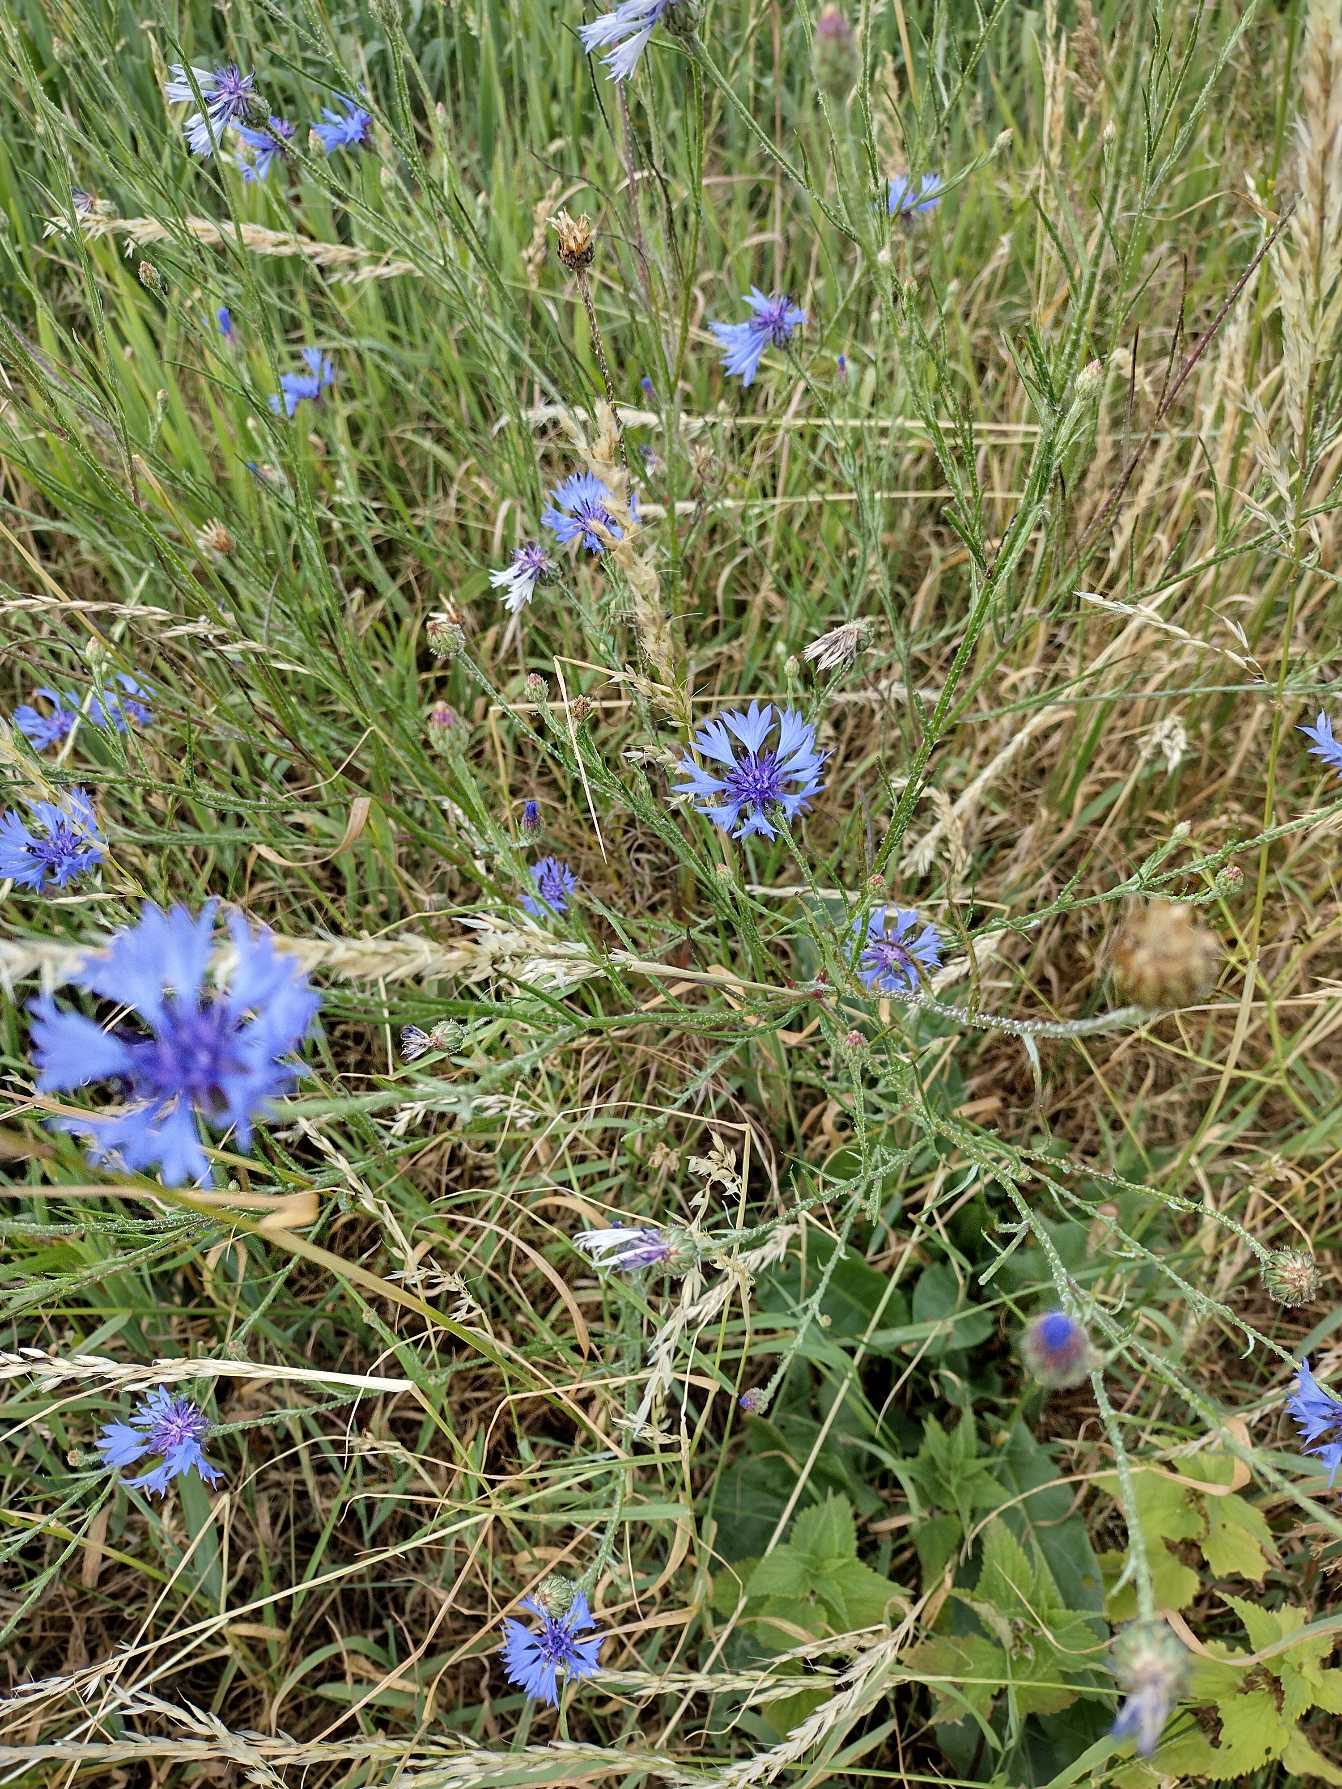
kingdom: Plantae
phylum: Tracheophyta
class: Magnoliopsida
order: Asterales
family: Asteraceae
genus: Centaurea
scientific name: Centaurea cyanus
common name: Kornblomst
